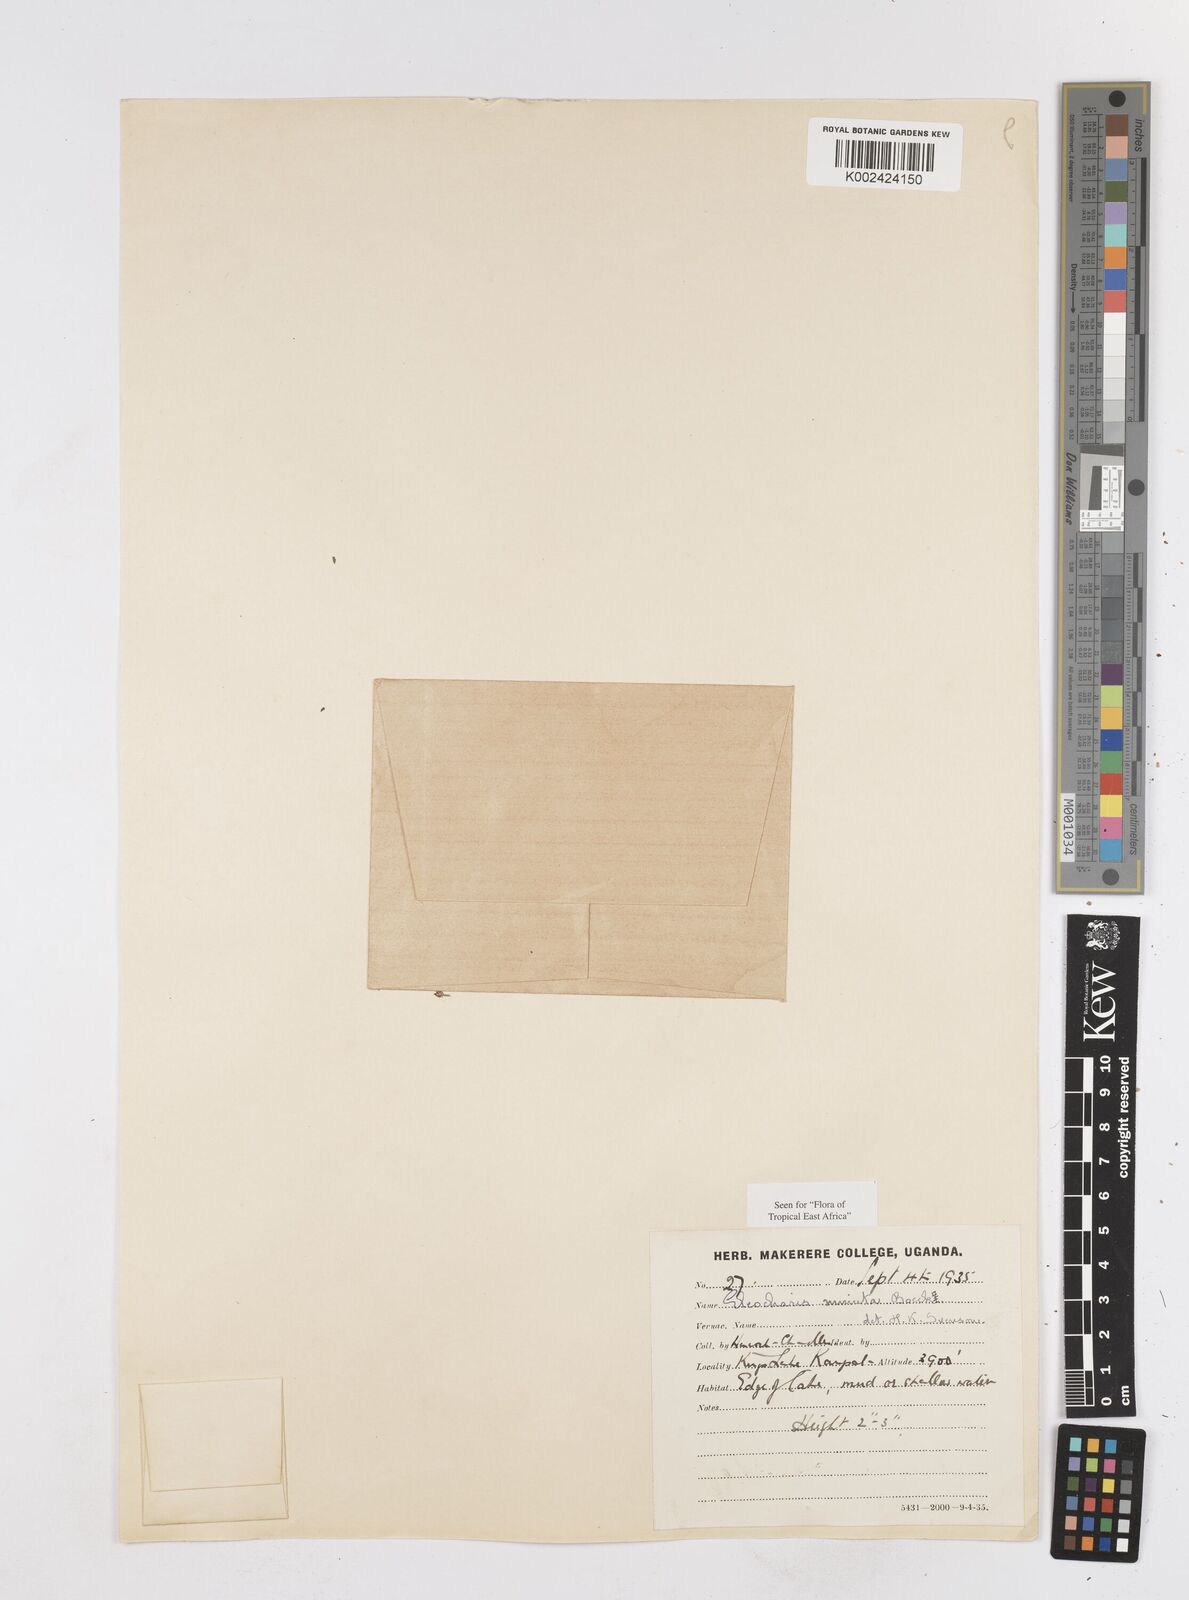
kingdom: Plantae
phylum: Tracheophyta
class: Liliopsida
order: Poales
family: Cyperaceae
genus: Eleocharis
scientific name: Eleocharis minuta
